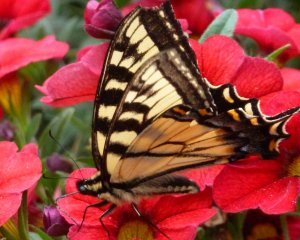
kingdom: Animalia
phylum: Arthropoda
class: Insecta
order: Lepidoptera
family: Papilionidae
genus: Pterourus
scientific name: Pterourus canadensis
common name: Canadian Tiger Swallowtail
